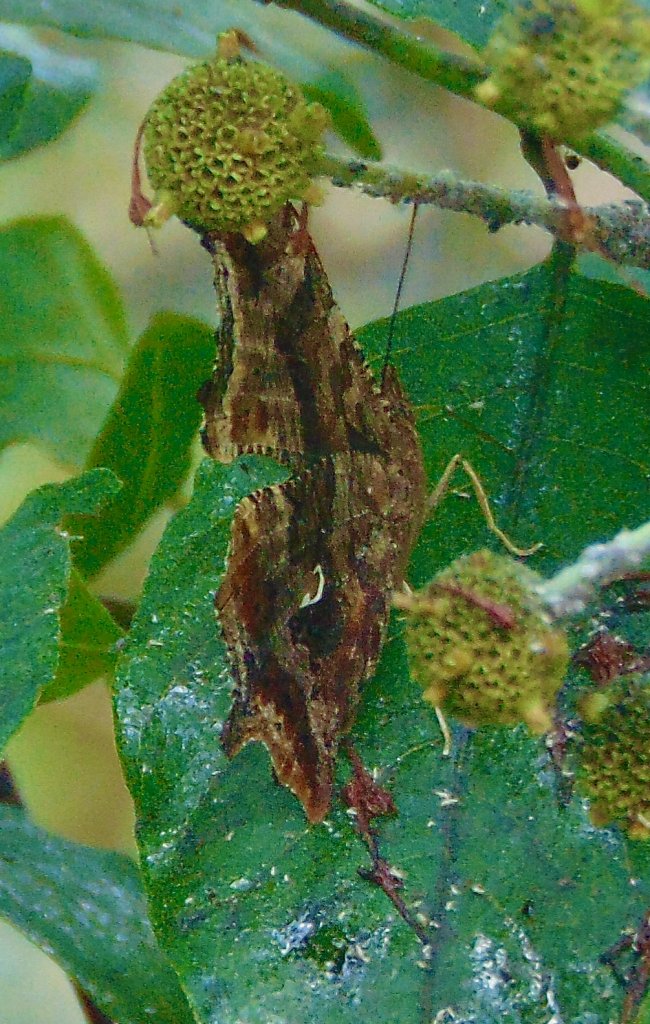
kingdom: Animalia
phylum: Arthropoda
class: Insecta
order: Lepidoptera
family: Nymphalidae
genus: Polygonia
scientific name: Polygonia comma
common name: Eastern Comma
